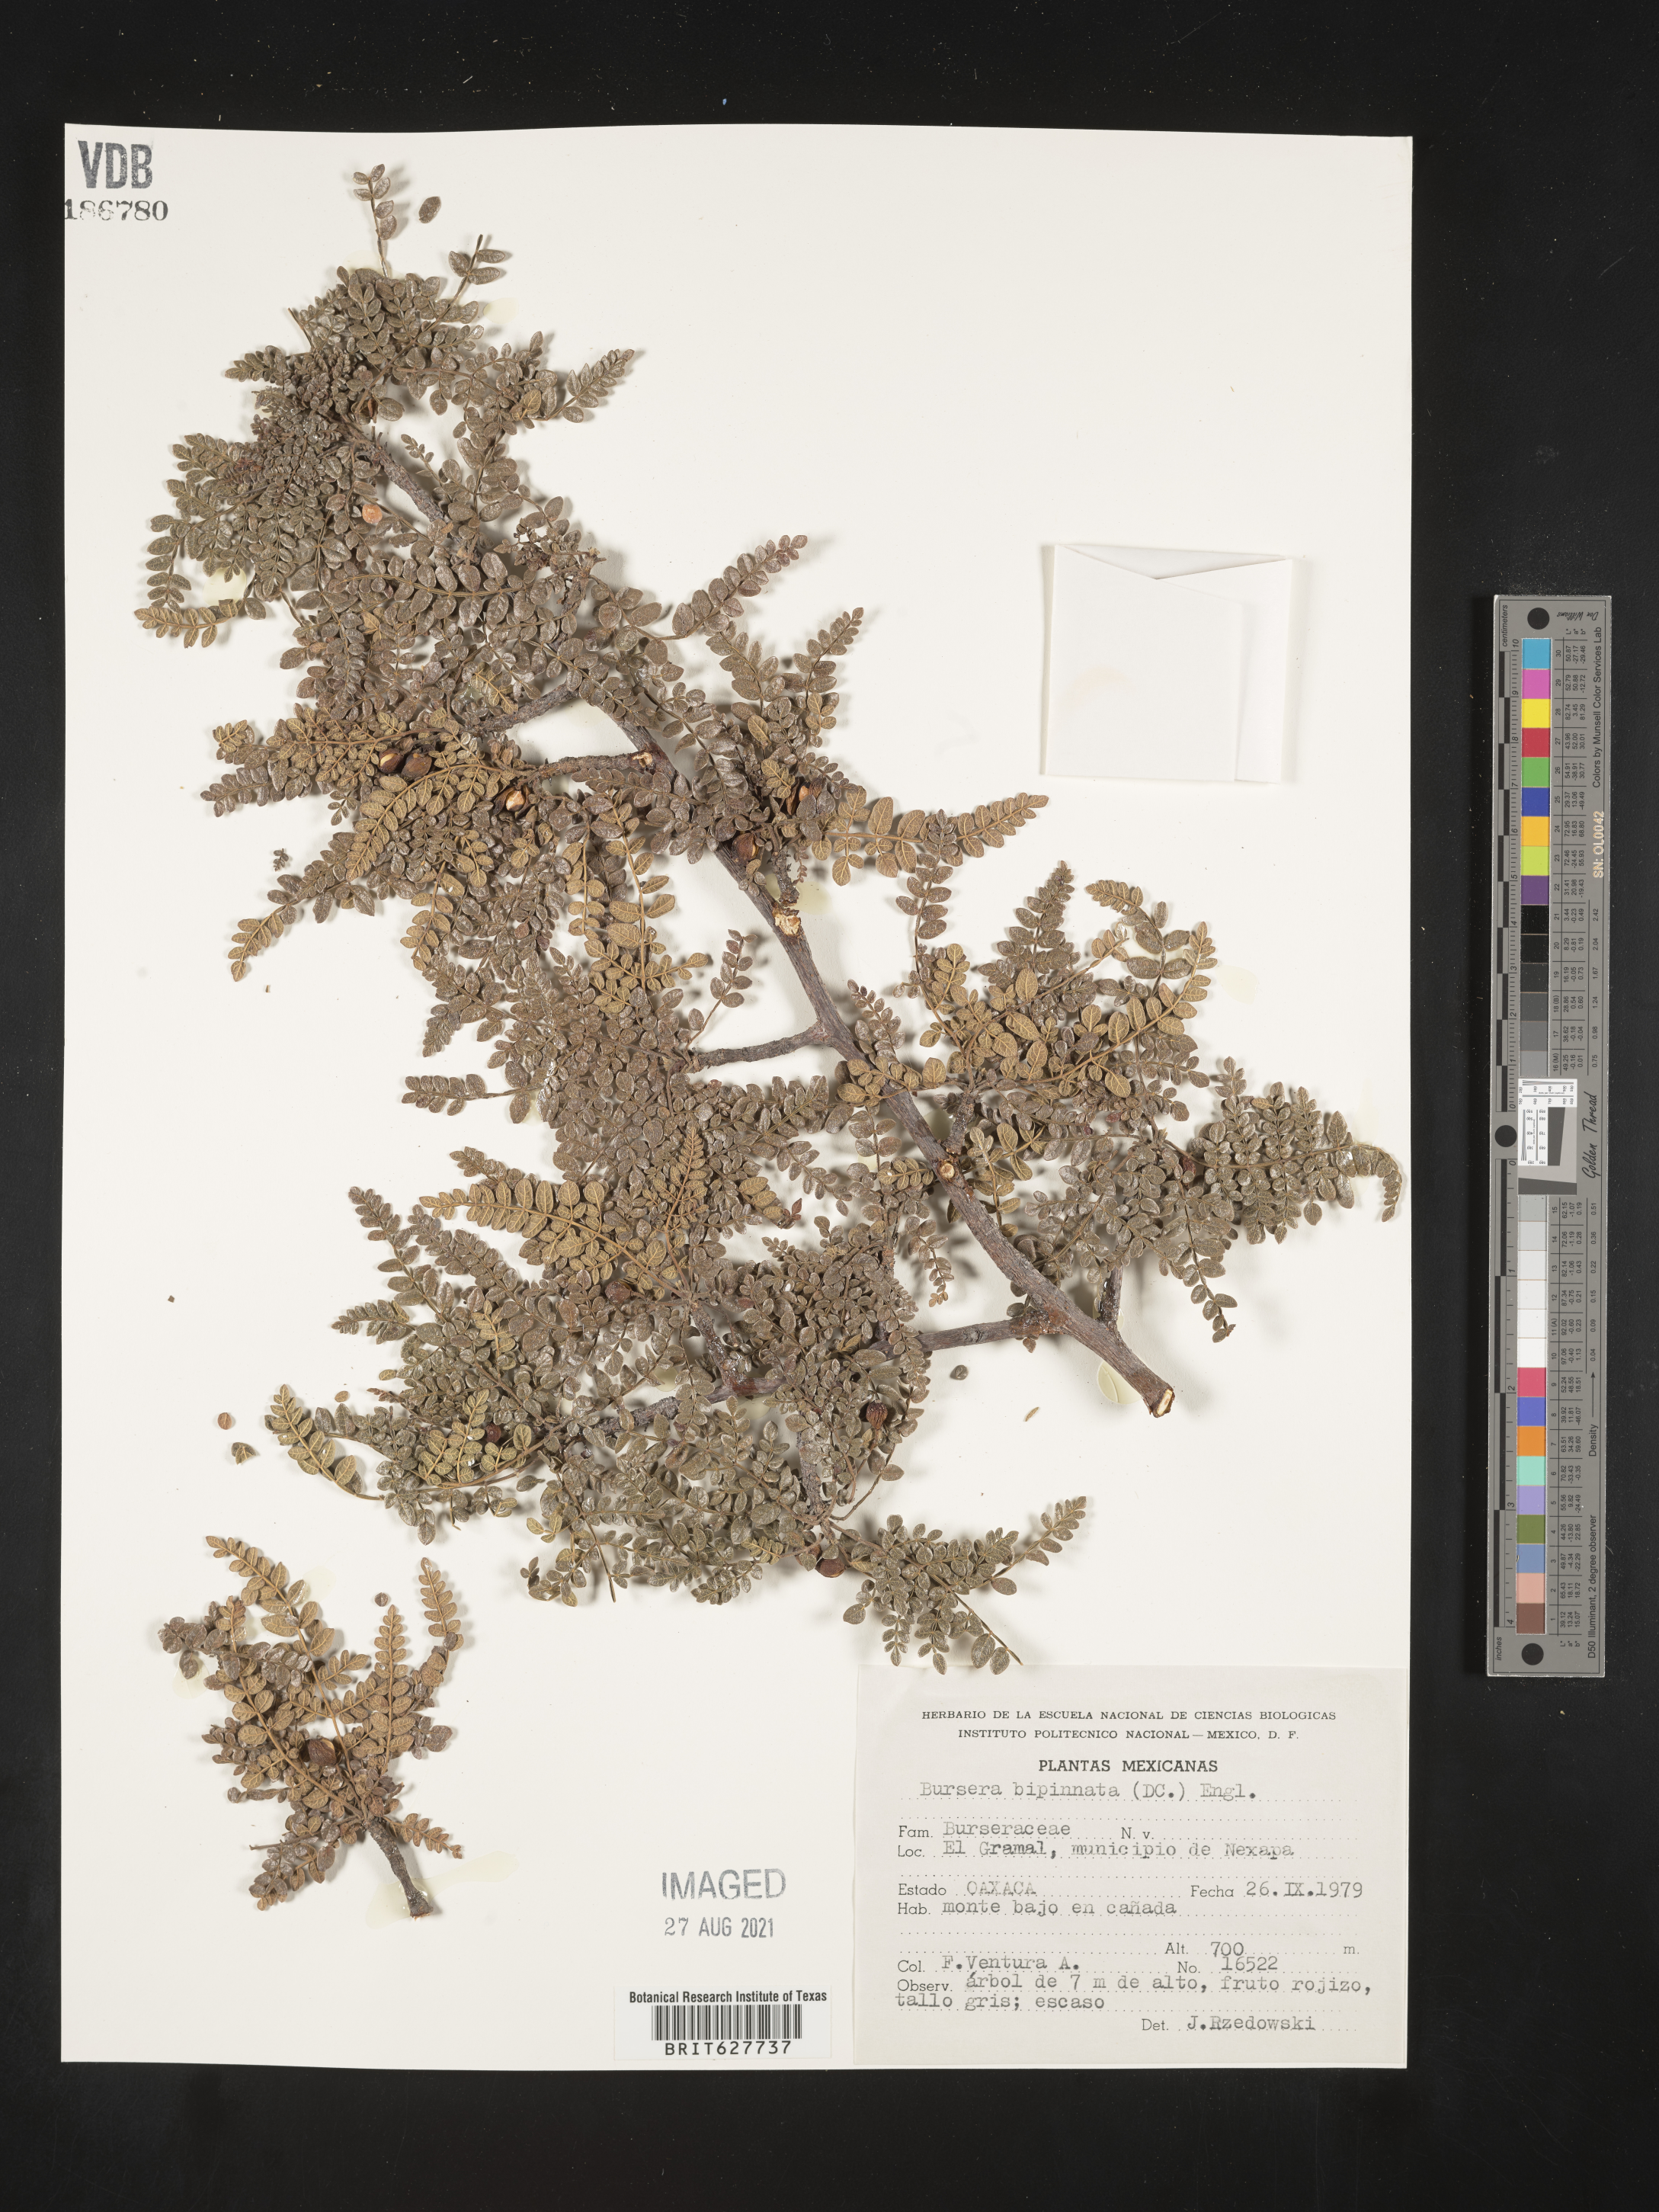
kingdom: Plantae
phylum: Tracheophyta
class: Magnoliopsida
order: Sapindales
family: Burseraceae
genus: Bursera
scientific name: Bursera
